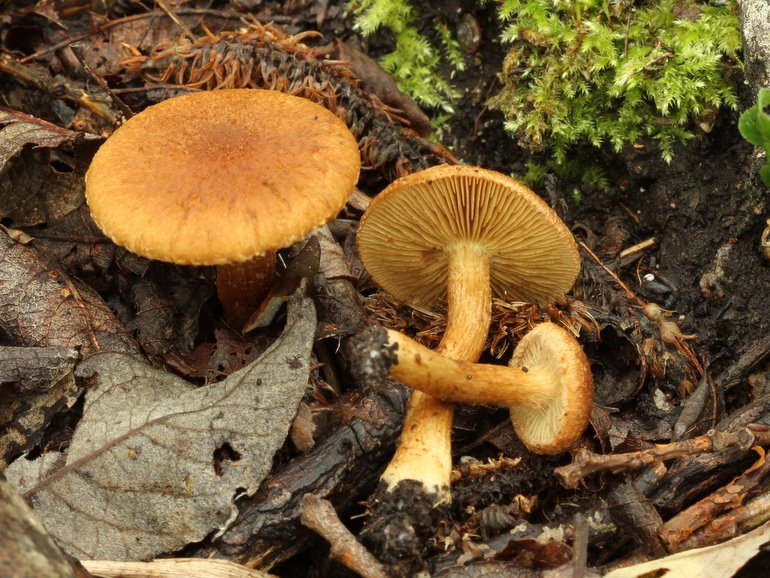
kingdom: Fungi
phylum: Basidiomycota
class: Agaricomycetes
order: Agaricales
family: Inocybaceae
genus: Mallocybe
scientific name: Mallocybe plebeia
